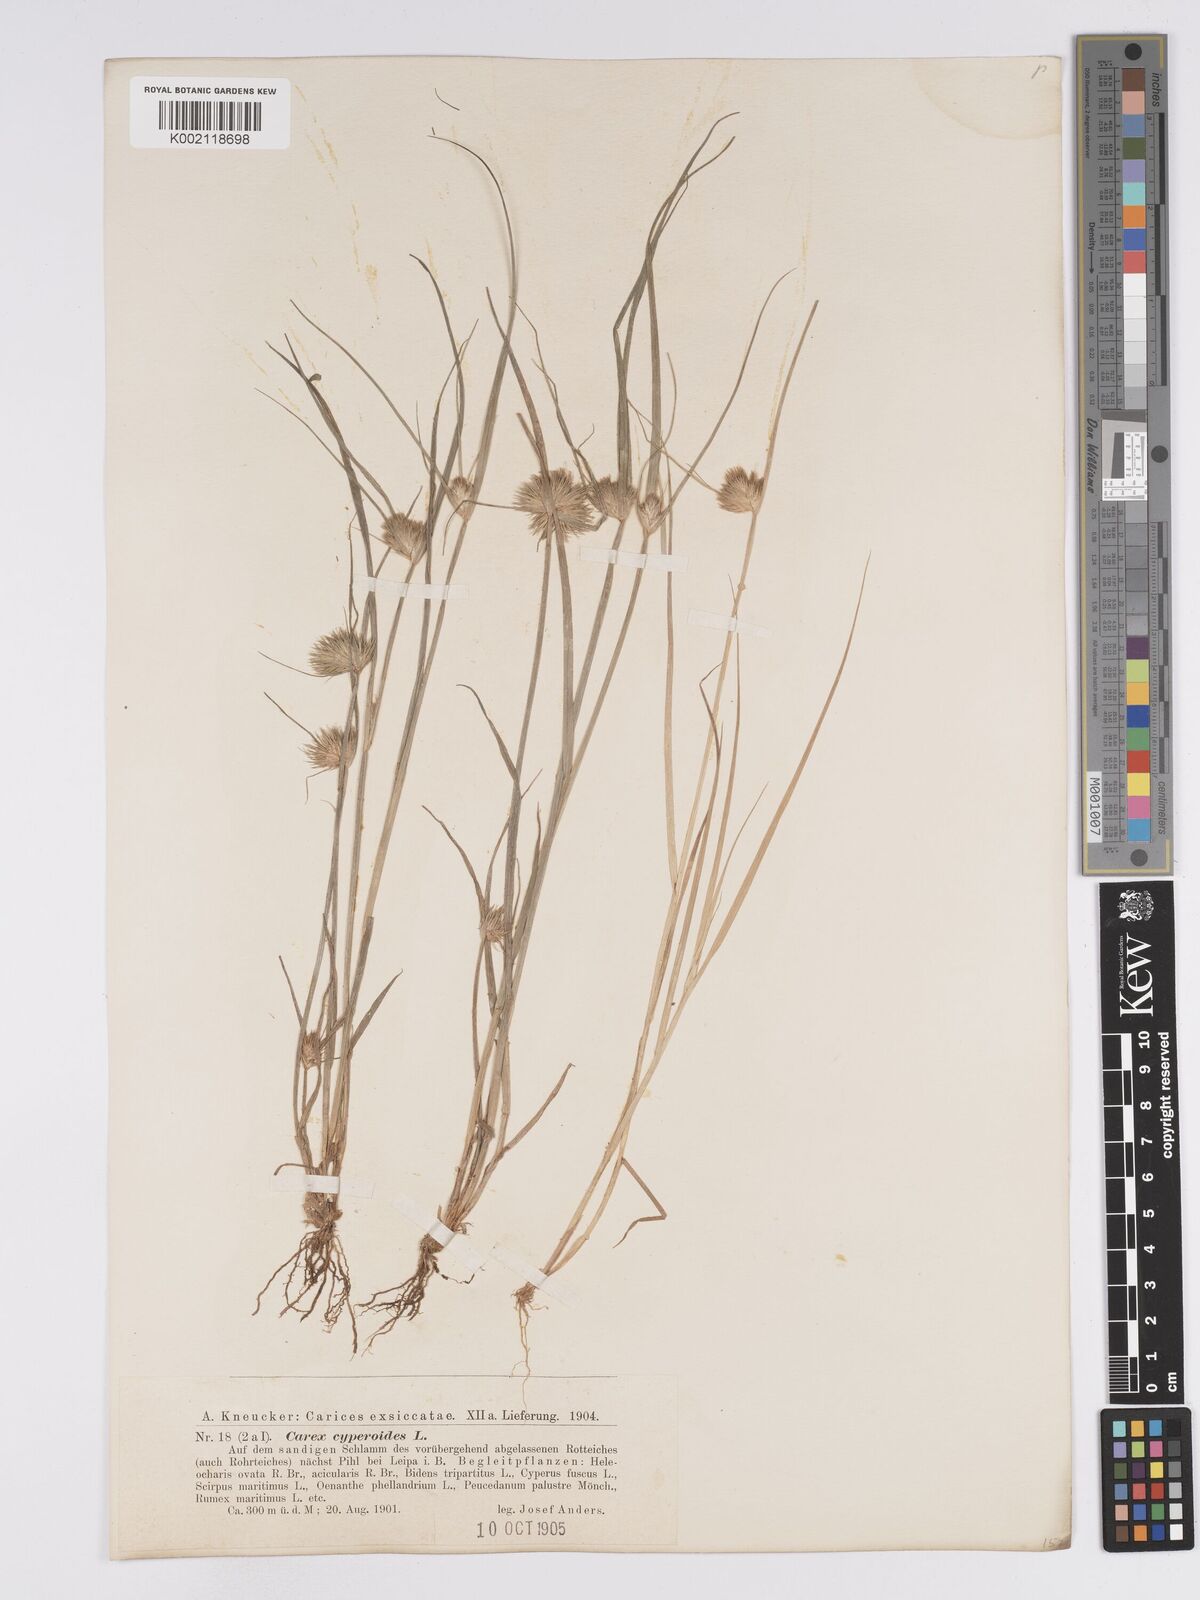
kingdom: Plantae
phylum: Tracheophyta
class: Liliopsida
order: Poales
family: Cyperaceae
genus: Carex
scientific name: Carex bohemica
